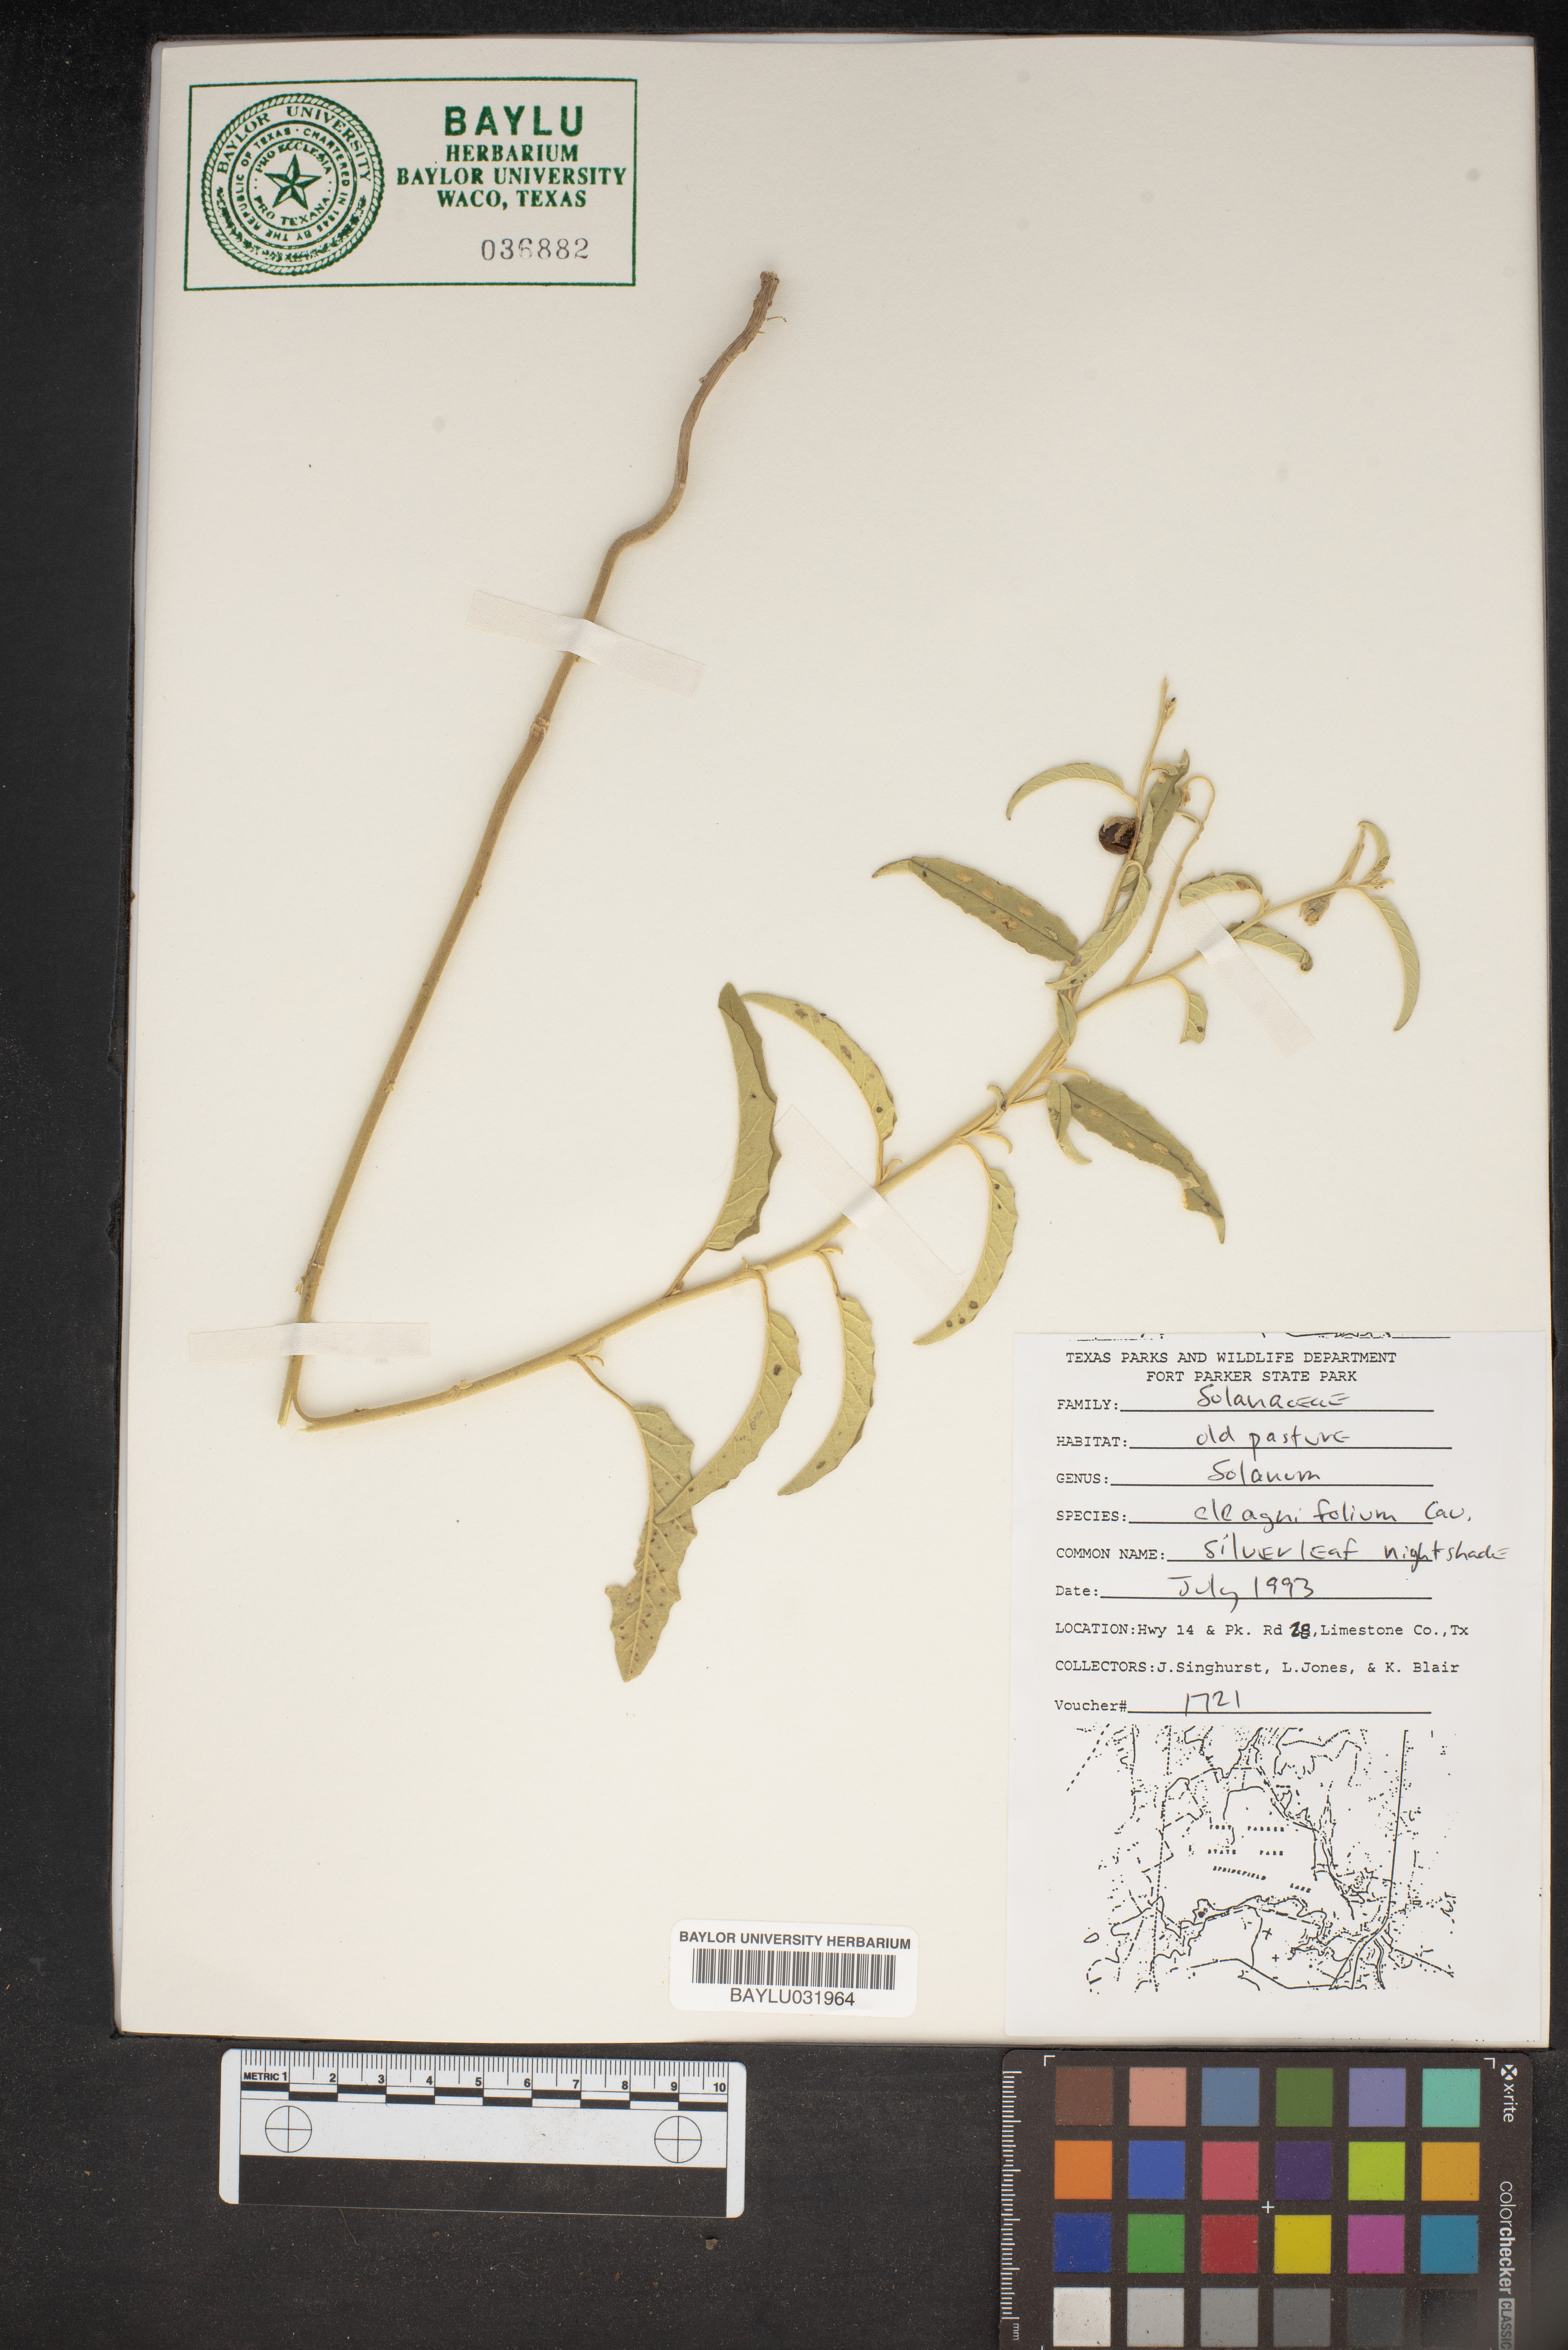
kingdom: Plantae
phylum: Tracheophyta
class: Magnoliopsida
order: Solanales
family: Solanaceae
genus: Solanum
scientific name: Solanum elaeagnifolium
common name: Silverleaf nightshade
